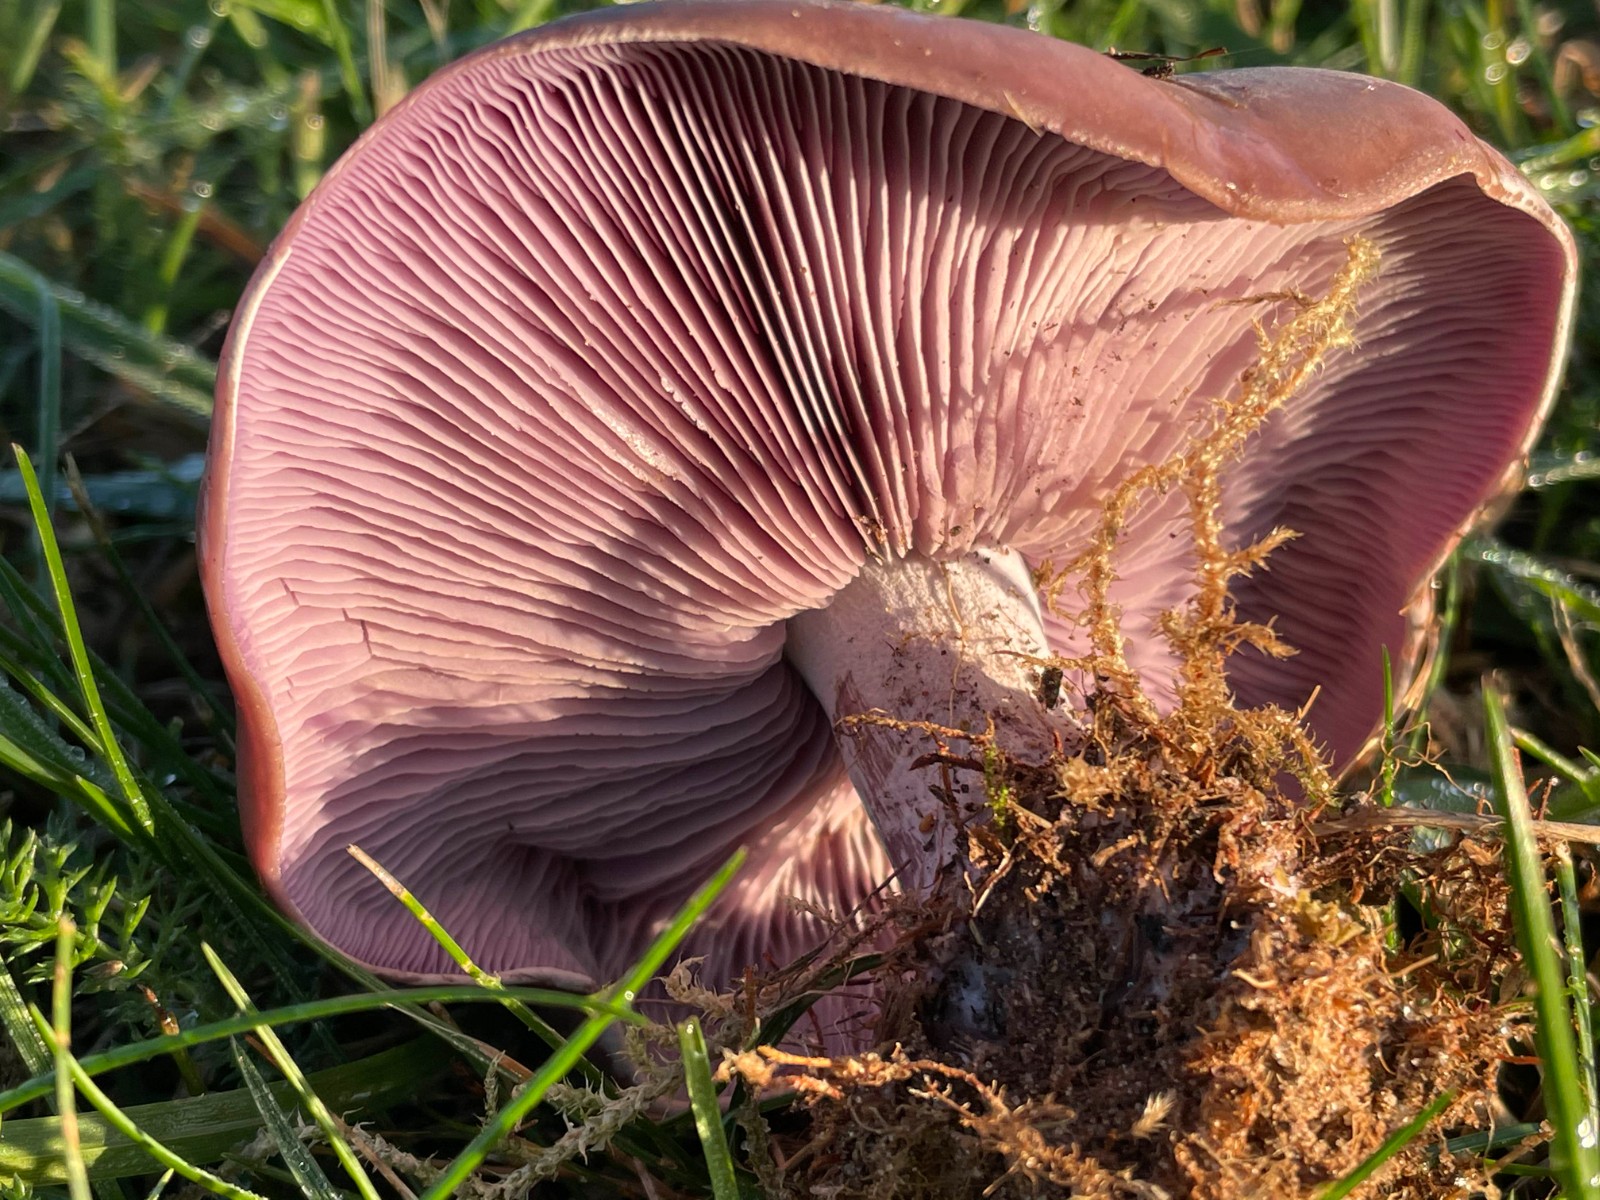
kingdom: Fungi
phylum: Basidiomycota
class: Agaricomycetes
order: Agaricales
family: Tricholomataceae
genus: Lepista
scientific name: Lepista nuda
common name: violet hekseringshat
